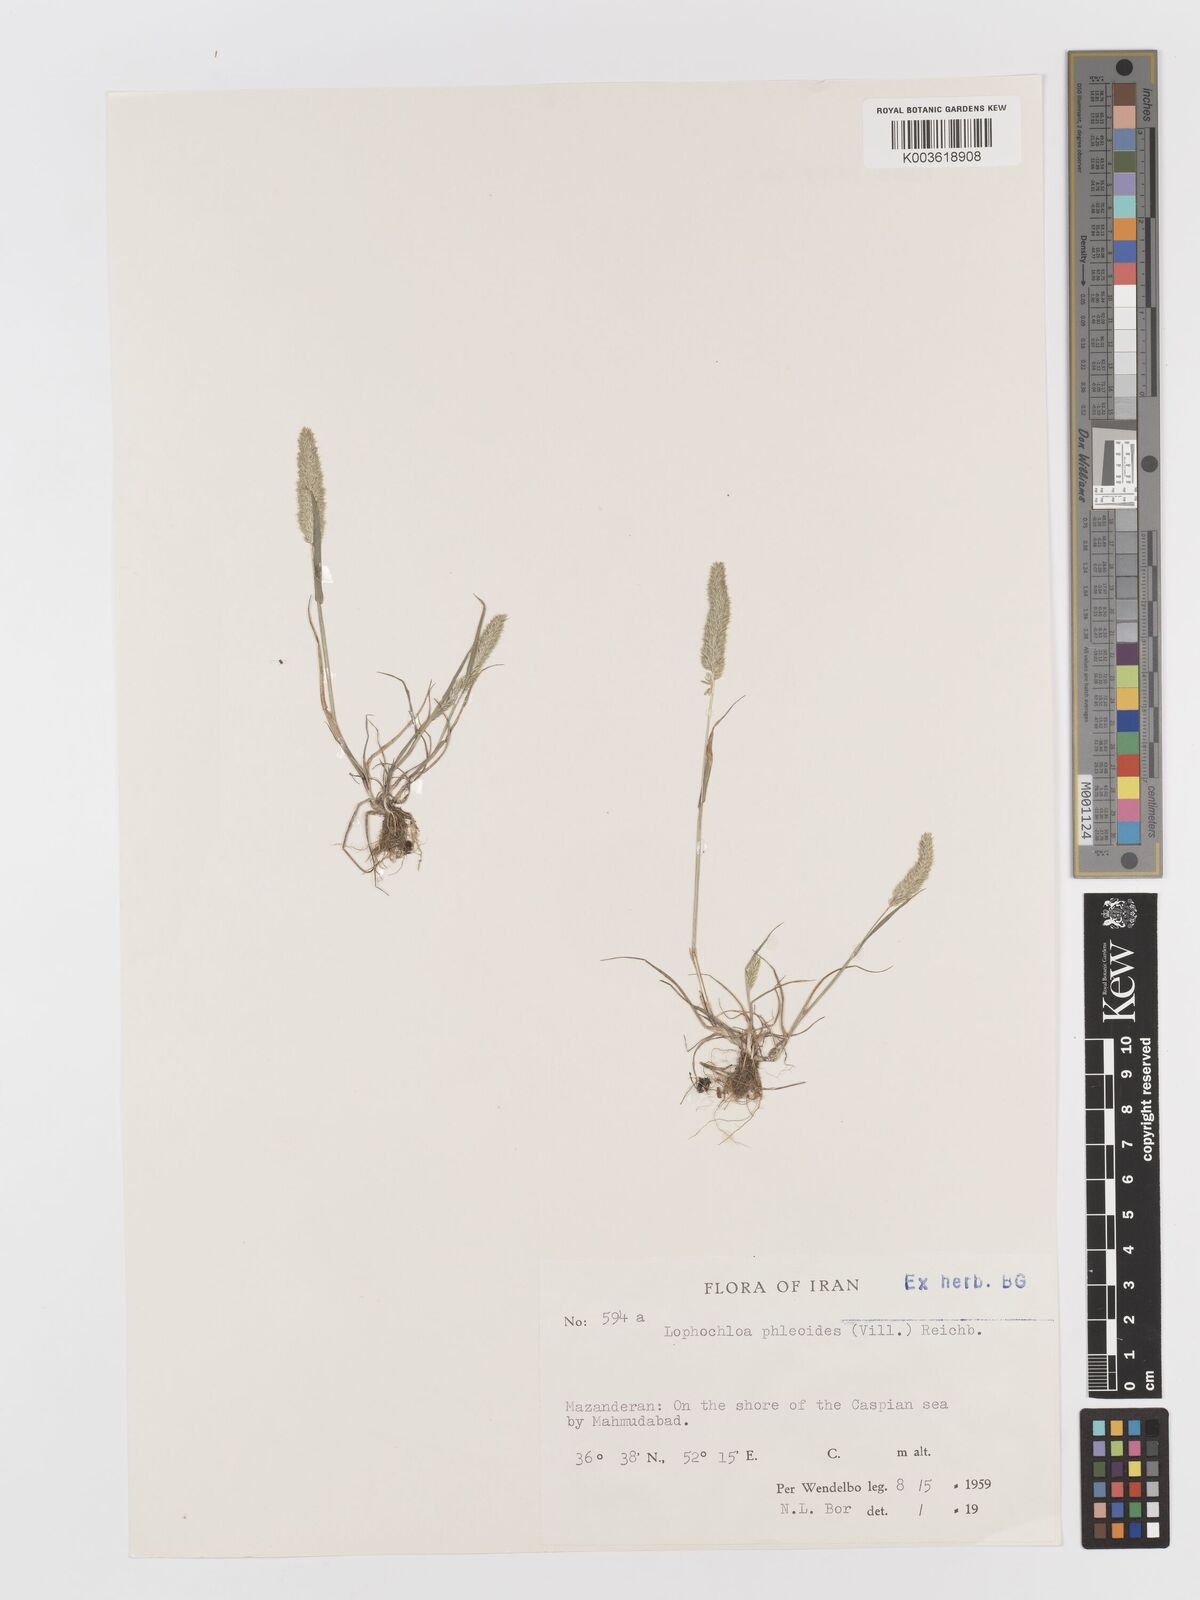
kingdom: Plantae
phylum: Tracheophyta
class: Liliopsida
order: Poales
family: Poaceae
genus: Rostraria
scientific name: Rostraria cristata
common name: Mediterranean hair-grass
